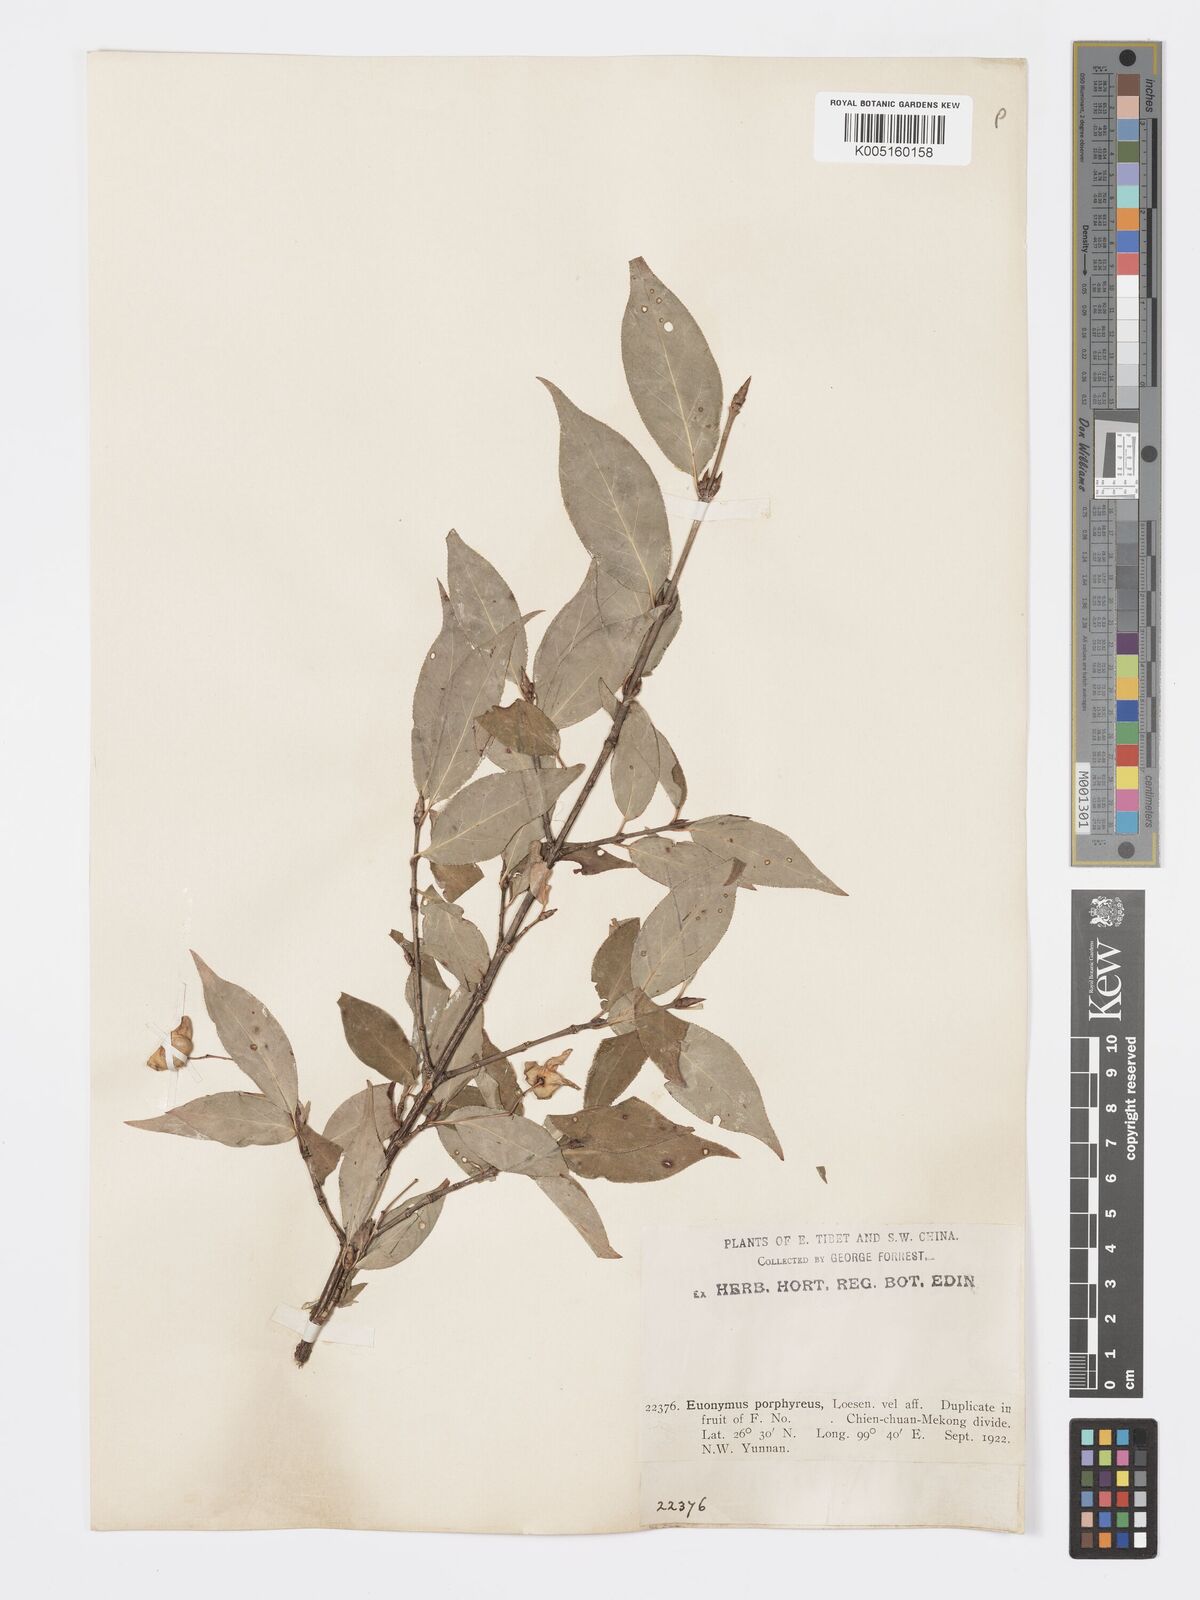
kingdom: Plantae
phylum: Tracheophyta
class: Magnoliopsida
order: Celastrales
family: Celastraceae
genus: Euonymus
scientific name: Euonymus frigidus
